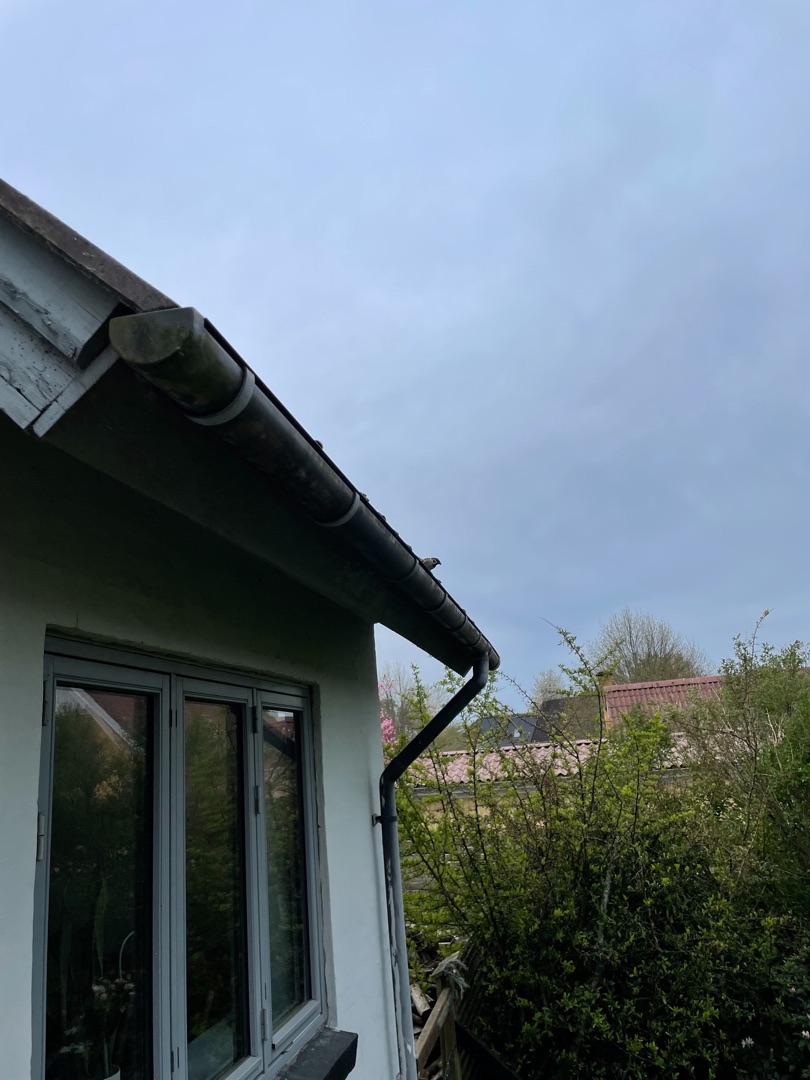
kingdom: Animalia
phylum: Chordata
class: Aves
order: Passeriformes
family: Passeridae
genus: Passer
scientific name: Passer montanus
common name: Skovspurv
